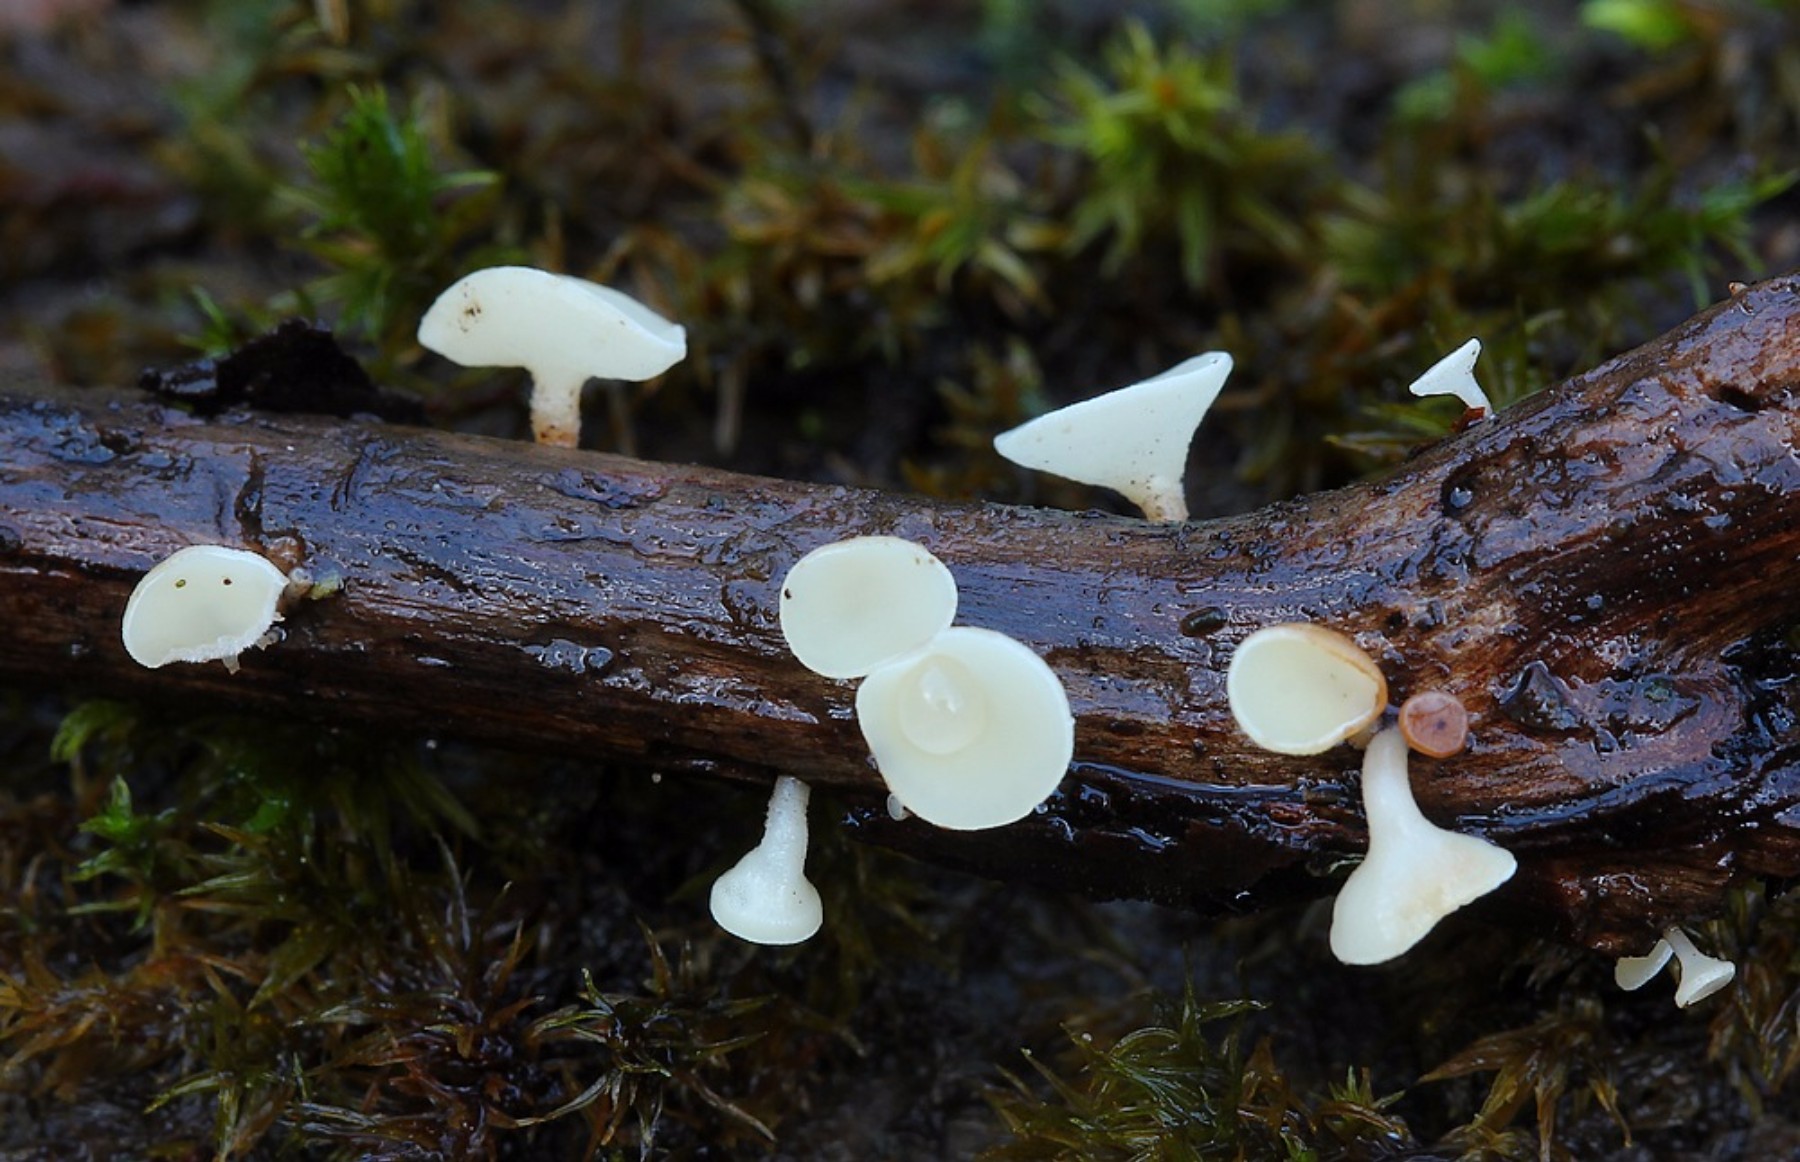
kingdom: Fungi
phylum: Ascomycota
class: Leotiomycetes
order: Helotiales
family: Helotiaceae
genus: Hymenoscyphus
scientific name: Hymenoscyphus
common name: stilkskive
